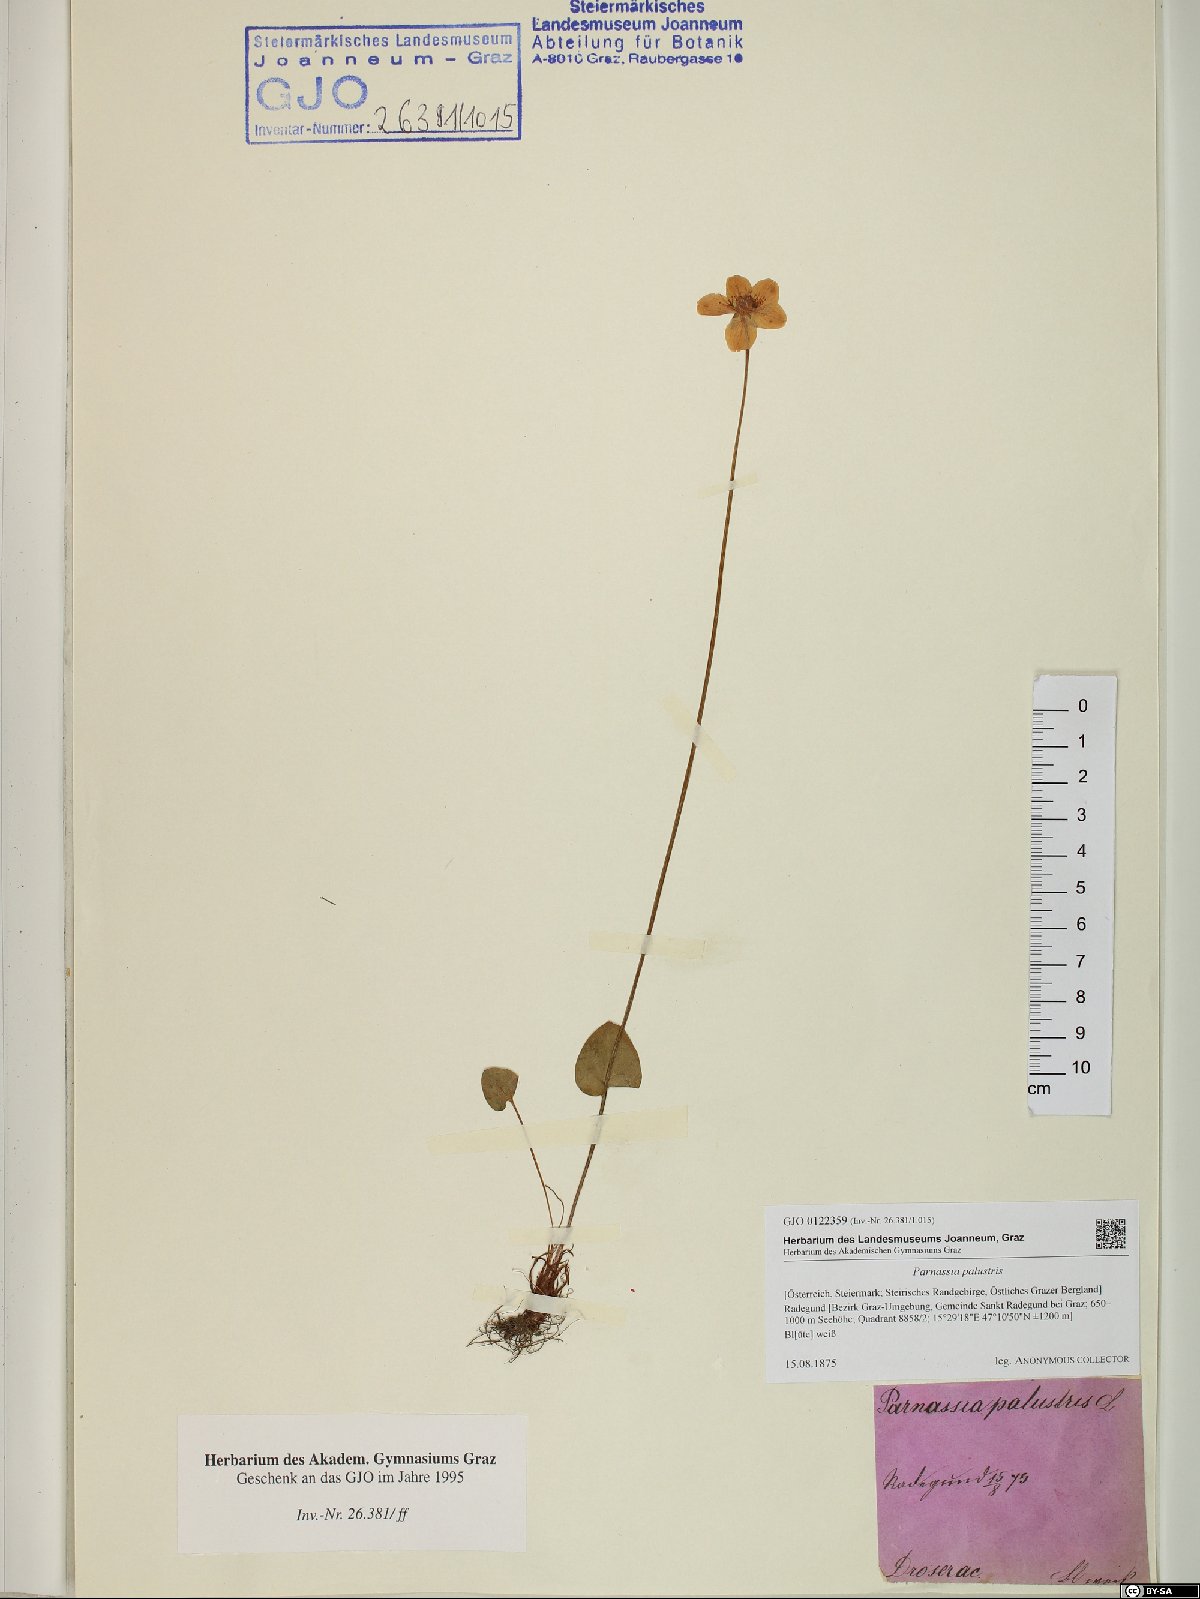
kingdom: Plantae
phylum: Tracheophyta
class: Magnoliopsida
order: Celastrales
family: Parnassiaceae
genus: Parnassia
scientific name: Parnassia palustris
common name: Grass-of-parnassus
